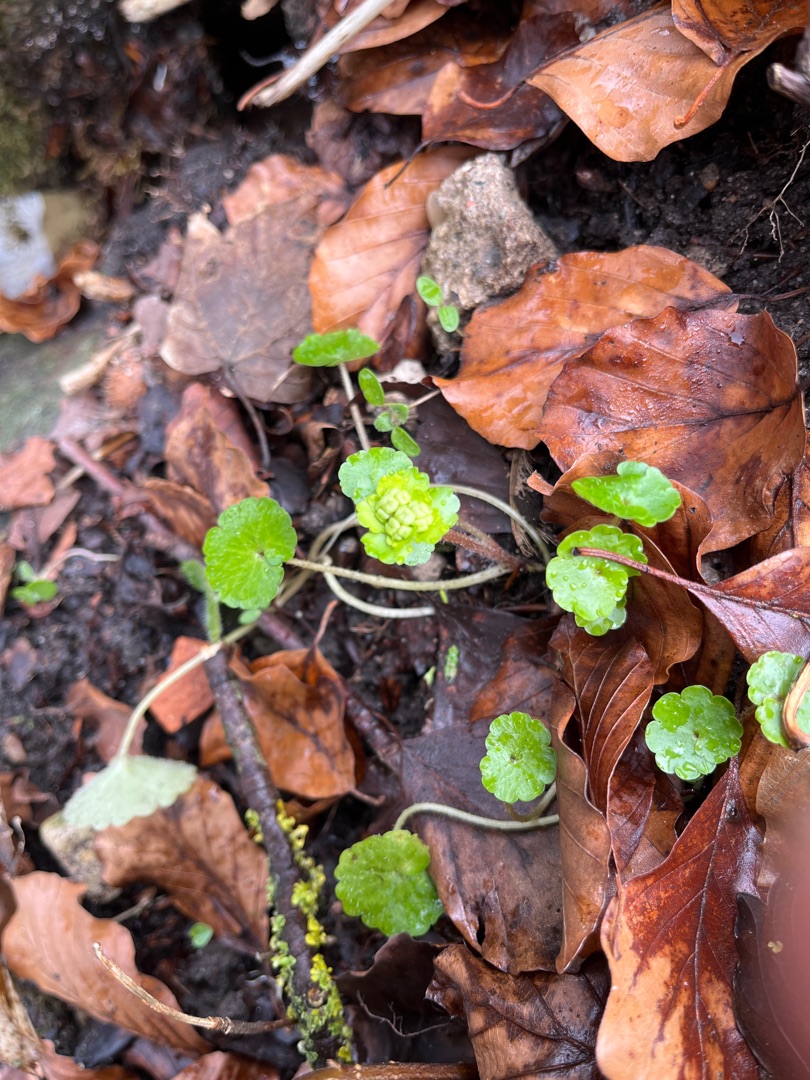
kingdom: Plantae
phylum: Tracheophyta
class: Magnoliopsida
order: Saxifragales
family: Saxifragaceae
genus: Chrysosplenium
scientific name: Chrysosplenium alternifolium
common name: Almindelig milturt
